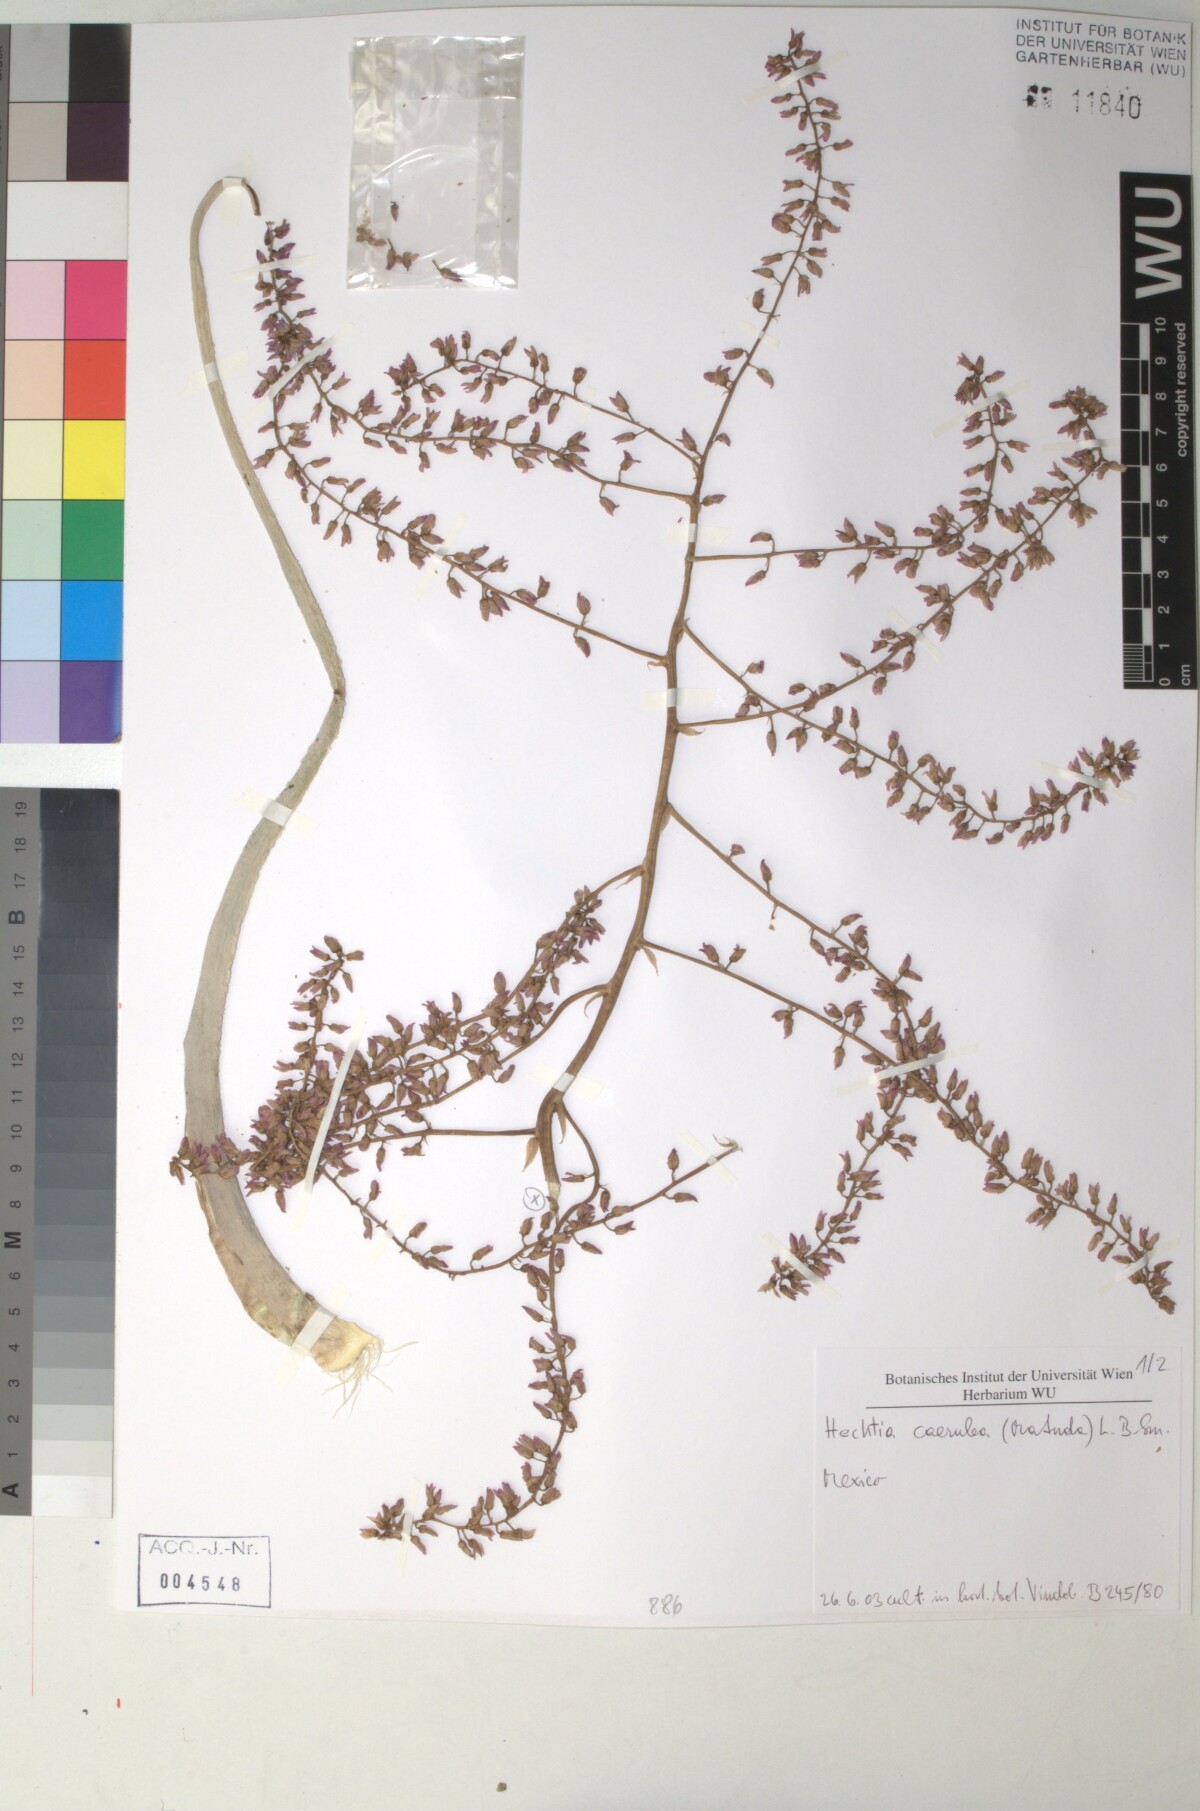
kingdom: Plantae
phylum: Tracheophyta
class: Liliopsida
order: Poales
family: Bromeliaceae
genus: Hechtia
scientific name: Hechtia
